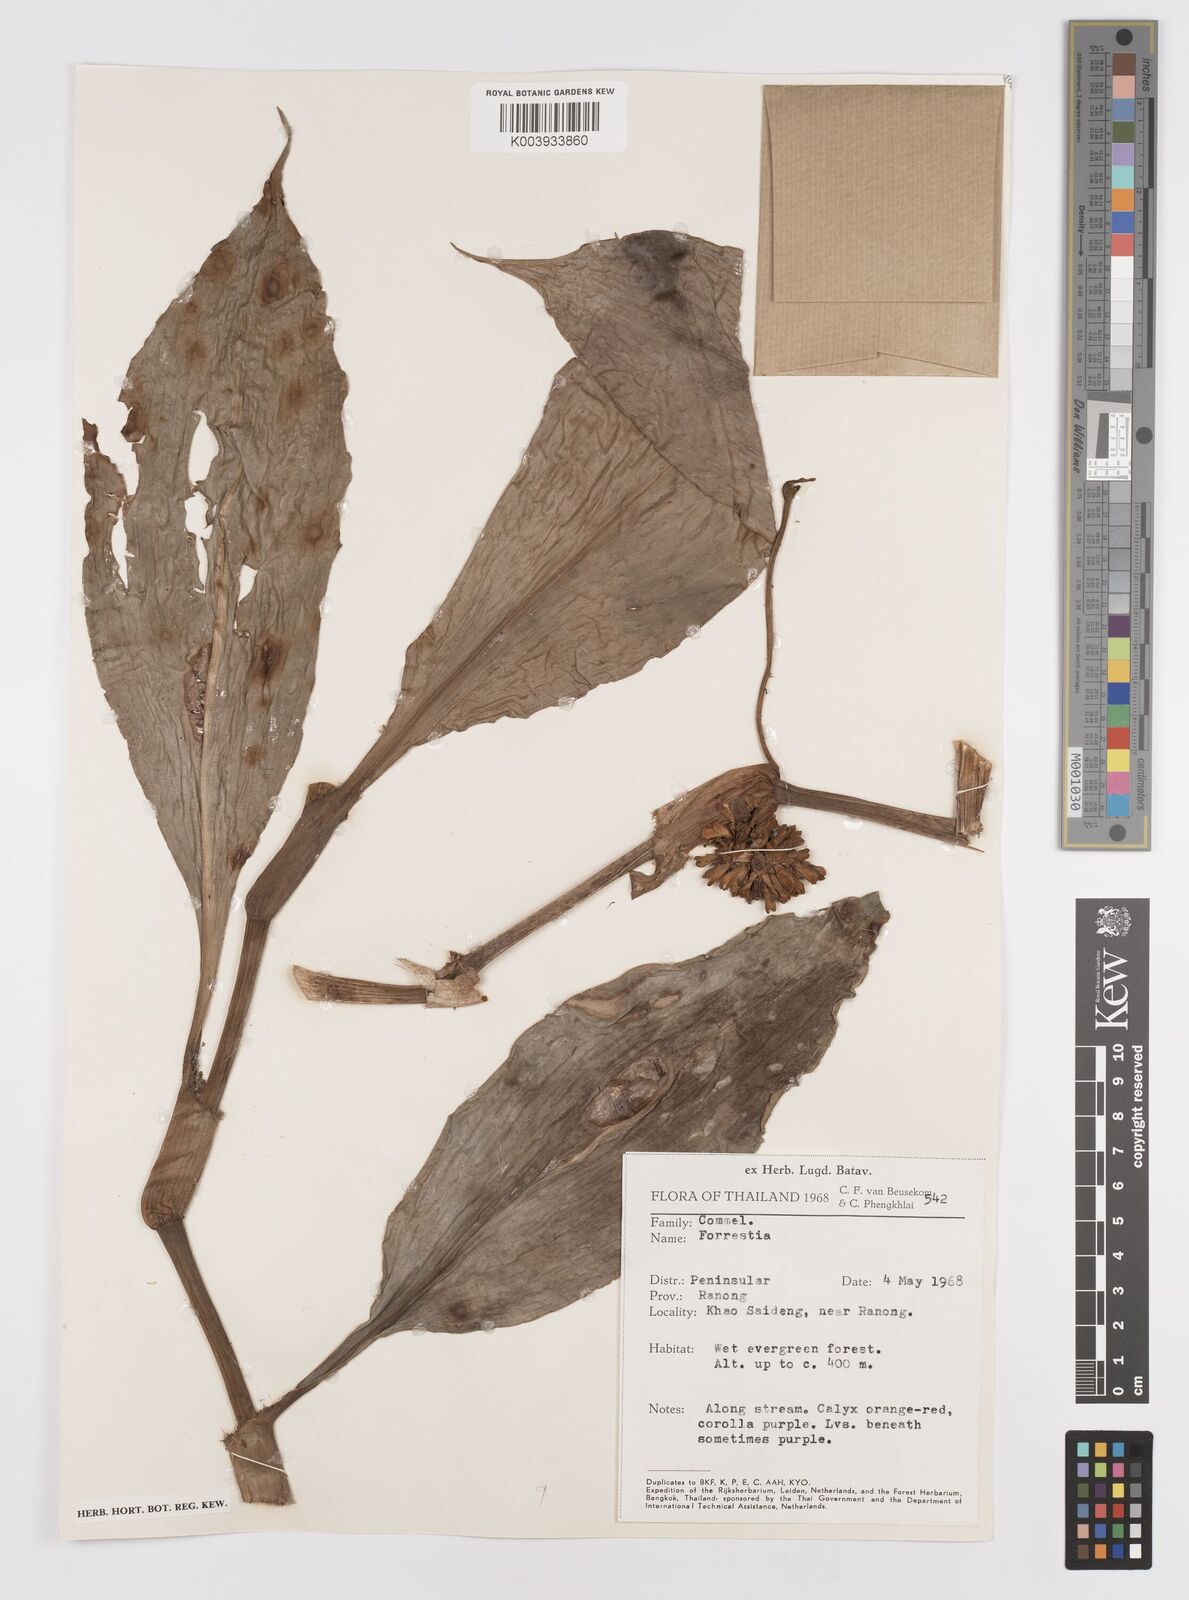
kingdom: Plantae
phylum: Tracheophyta
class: Liliopsida
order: Commelinales
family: Commelinaceae
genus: Amischotolype
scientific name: Amischotolype
